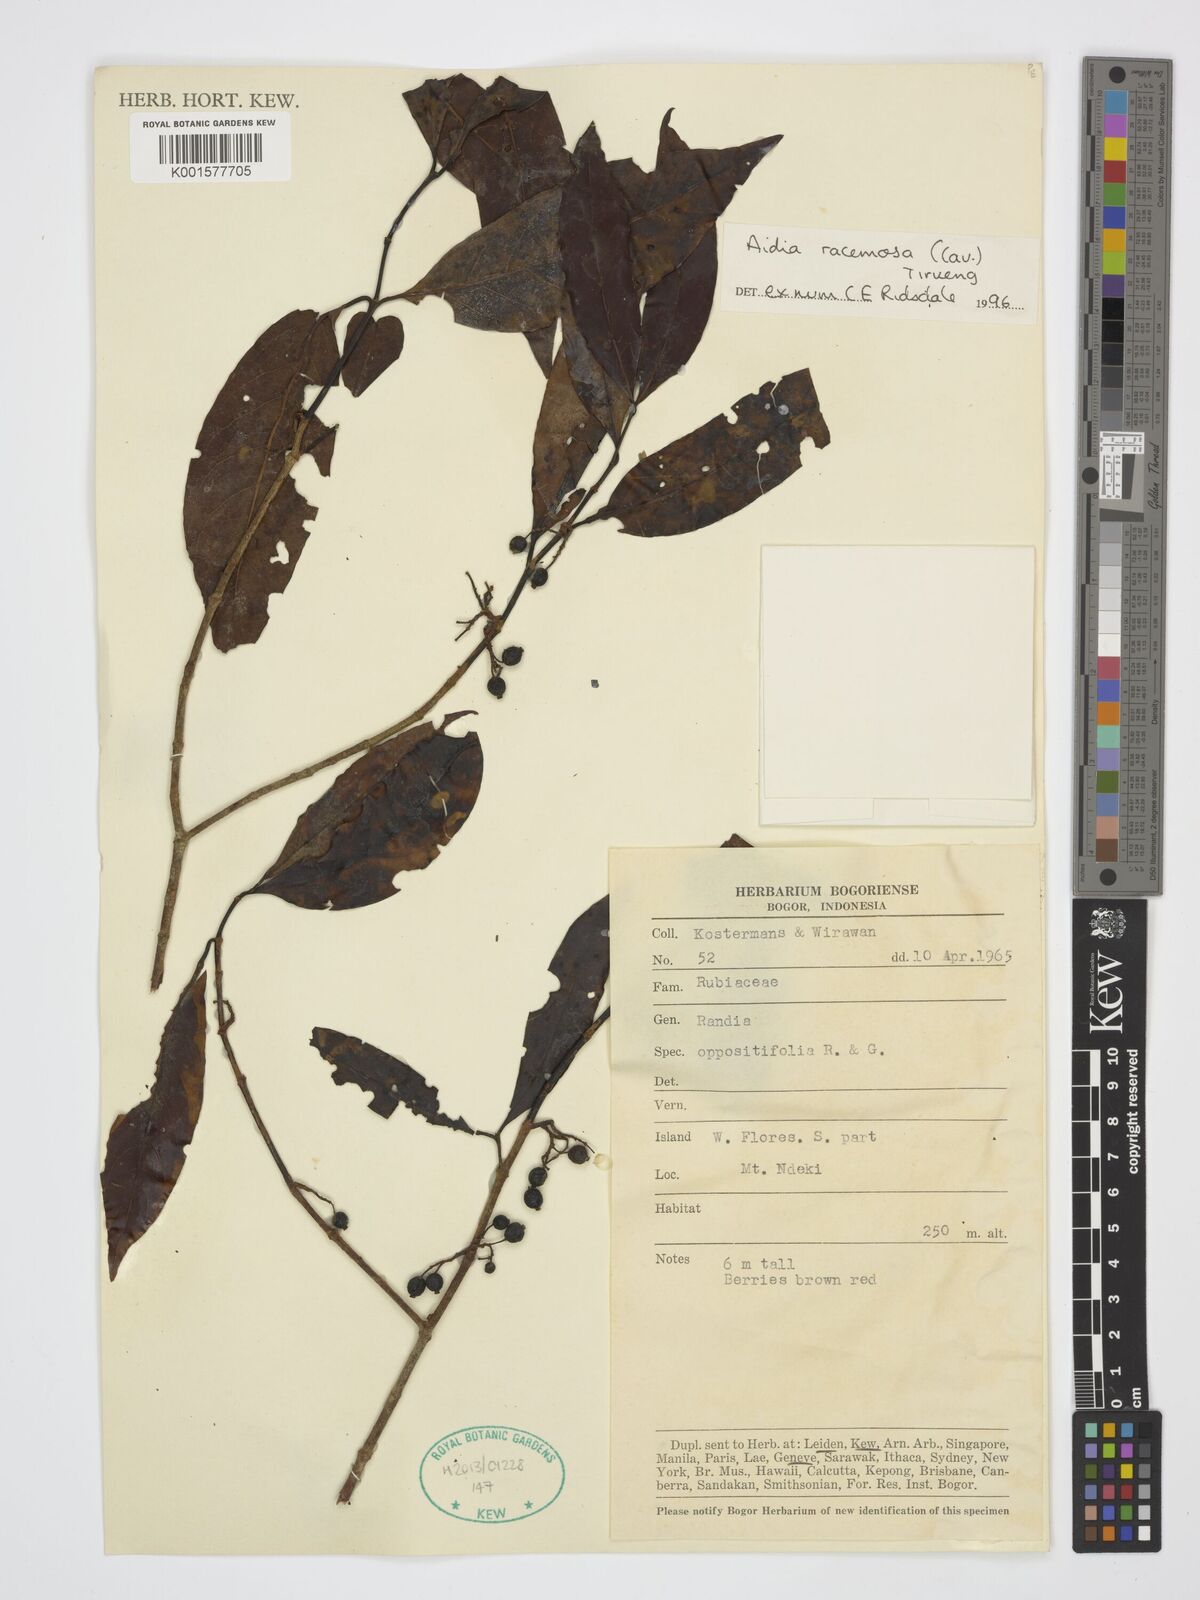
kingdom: Plantae
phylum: Tracheophyta
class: Magnoliopsida
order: Gentianales
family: Rubiaceae
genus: Aidia
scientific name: Aidia racemosa
